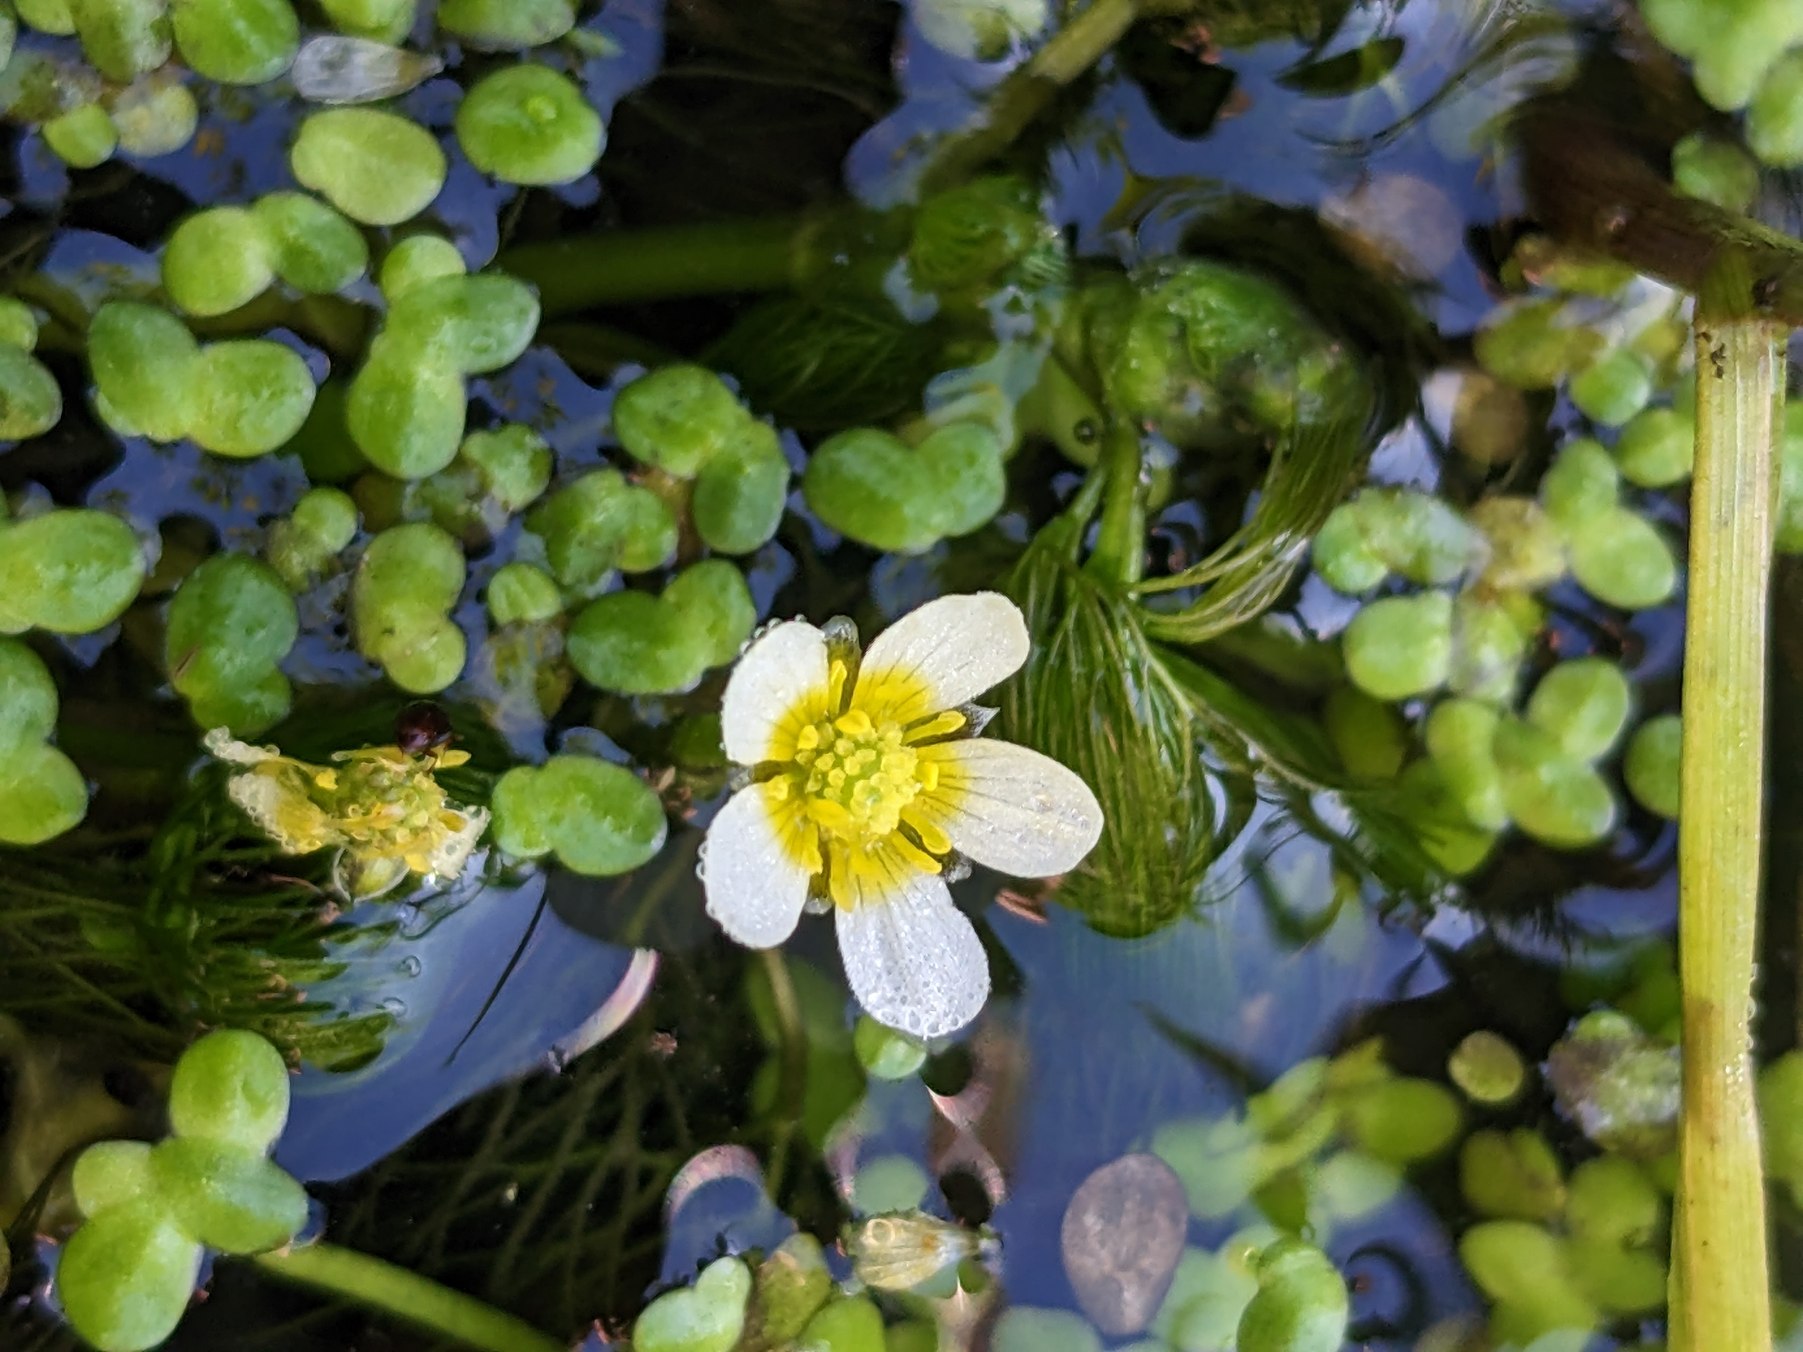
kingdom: Plantae
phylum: Tracheophyta
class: Magnoliopsida
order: Ranunculales
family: Ranunculaceae
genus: Ranunculus
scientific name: Ranunculus aquatilis
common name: Almindelig vandranunkel
